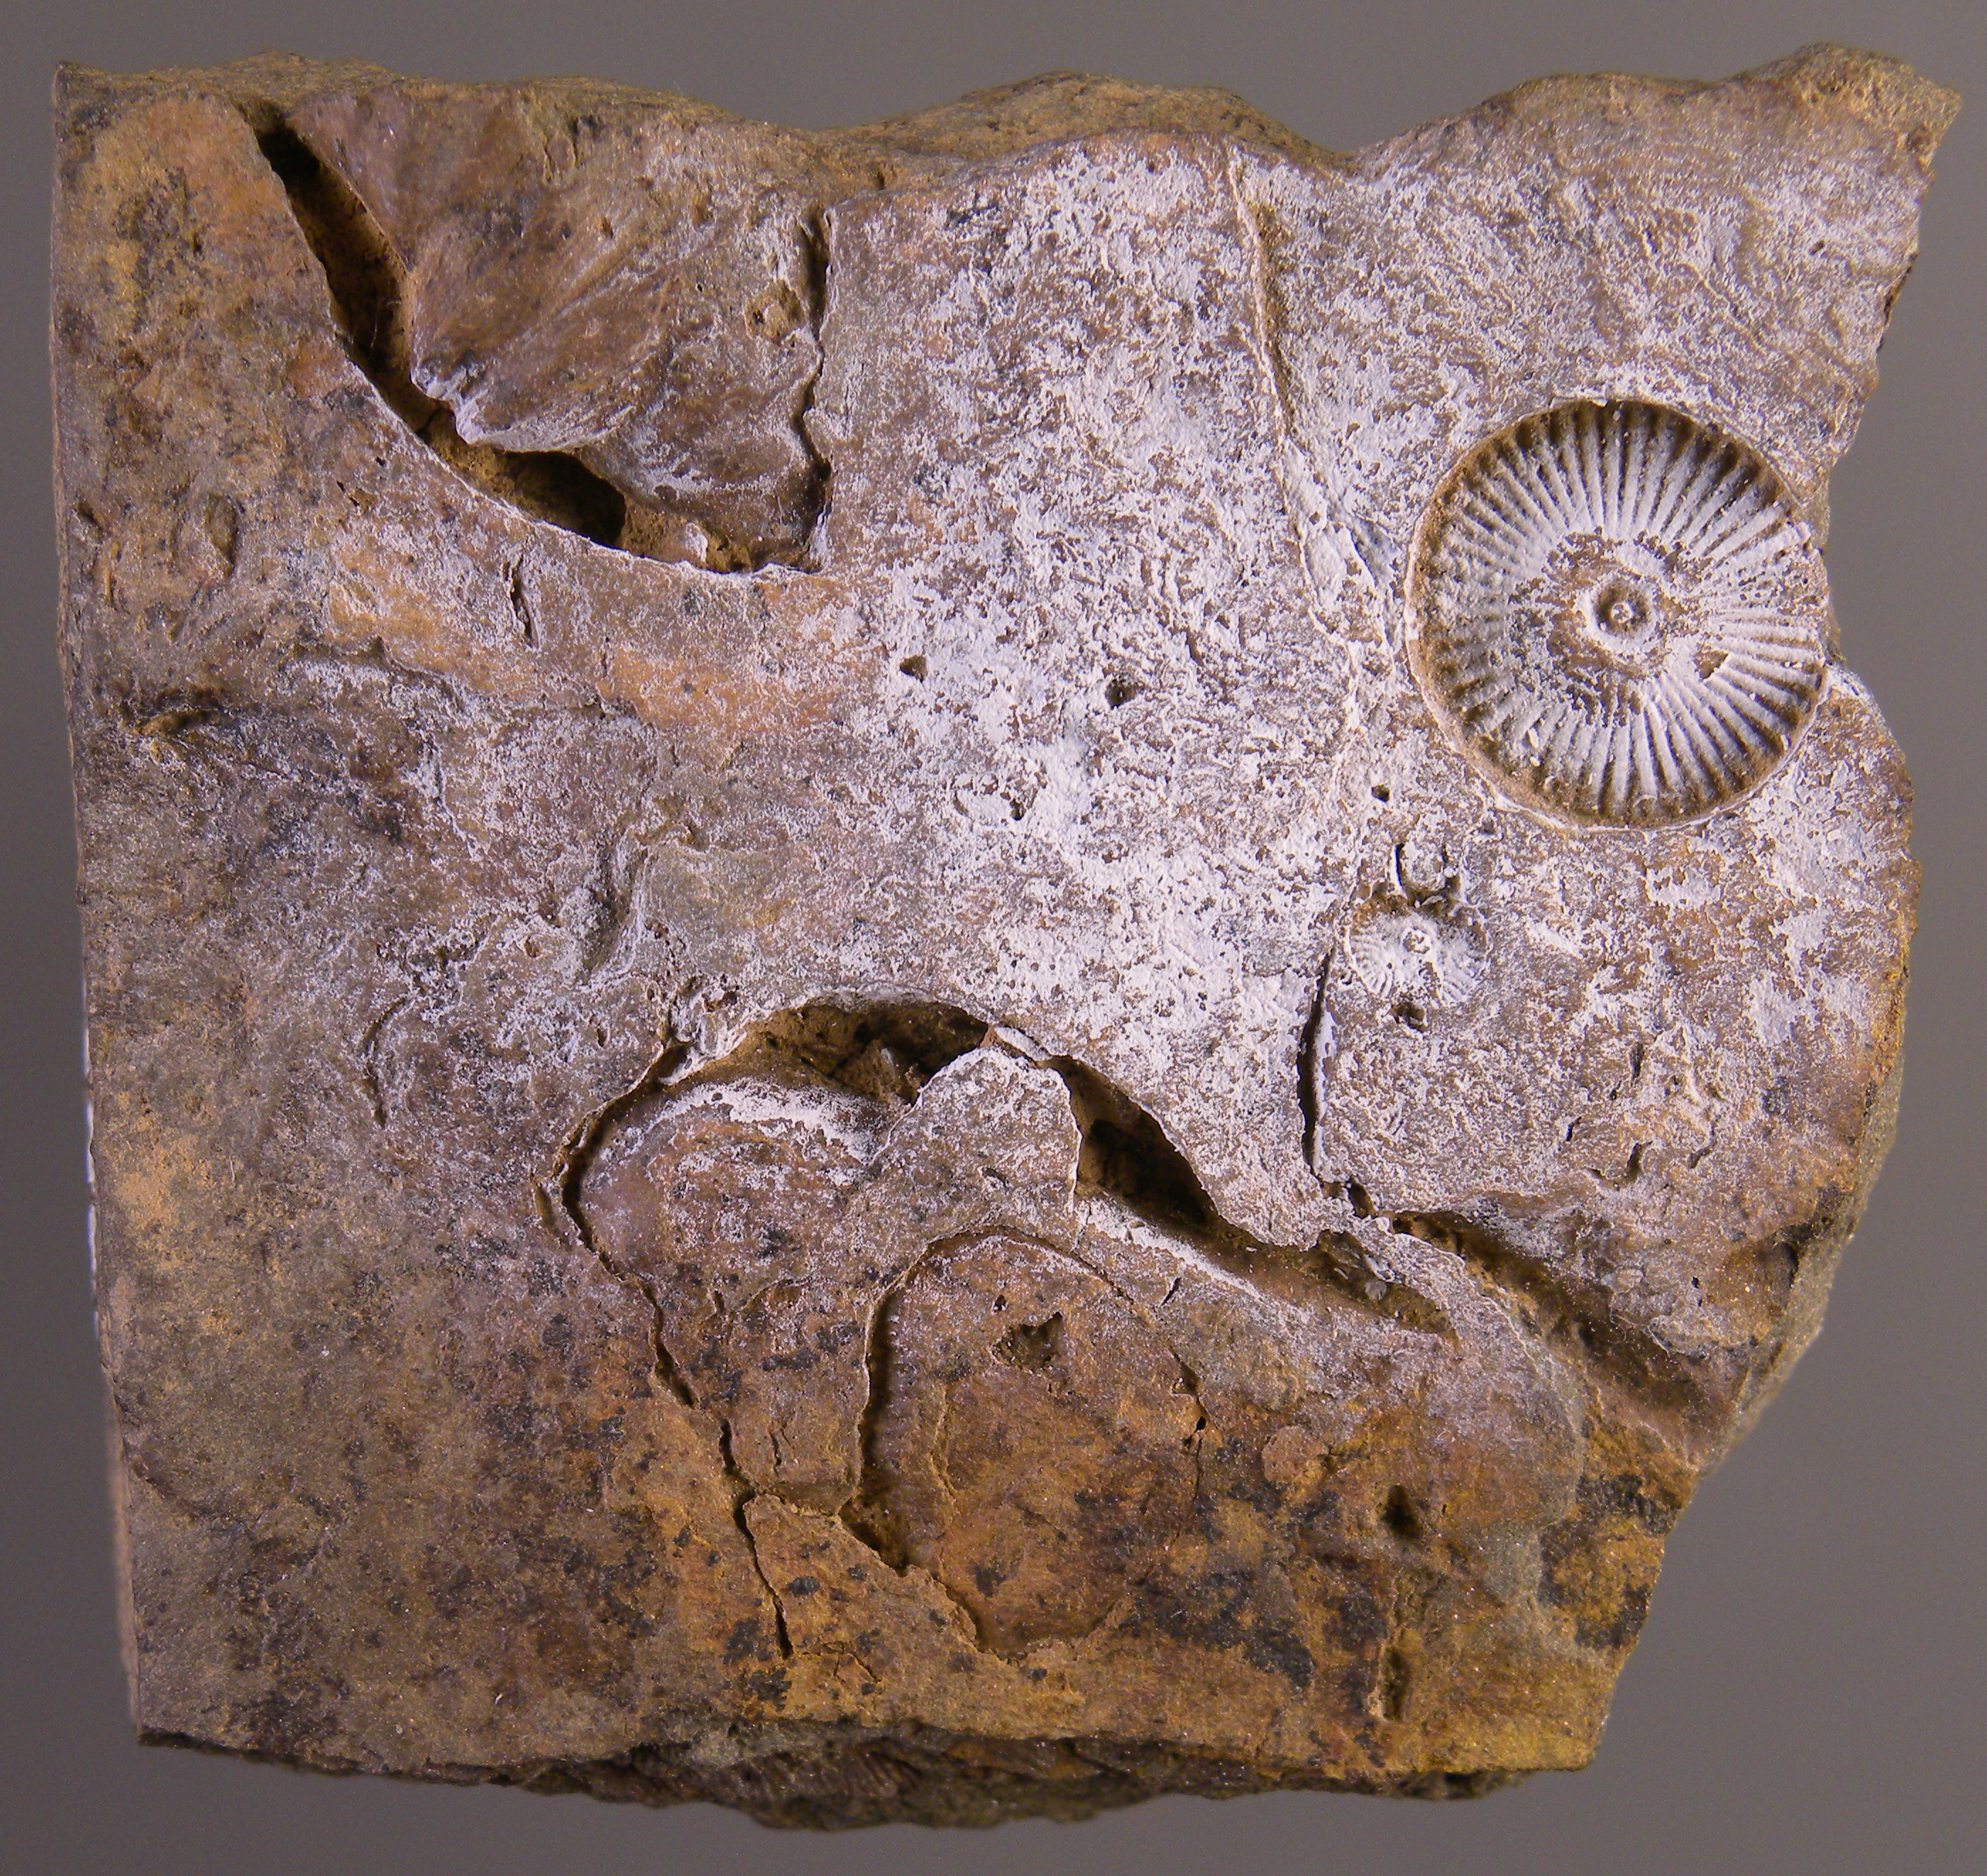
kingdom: Animalia
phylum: Echinodermata
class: Crinoidea
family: Melocrinitidae
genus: Ctenocrinus
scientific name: Ctenocrinus
